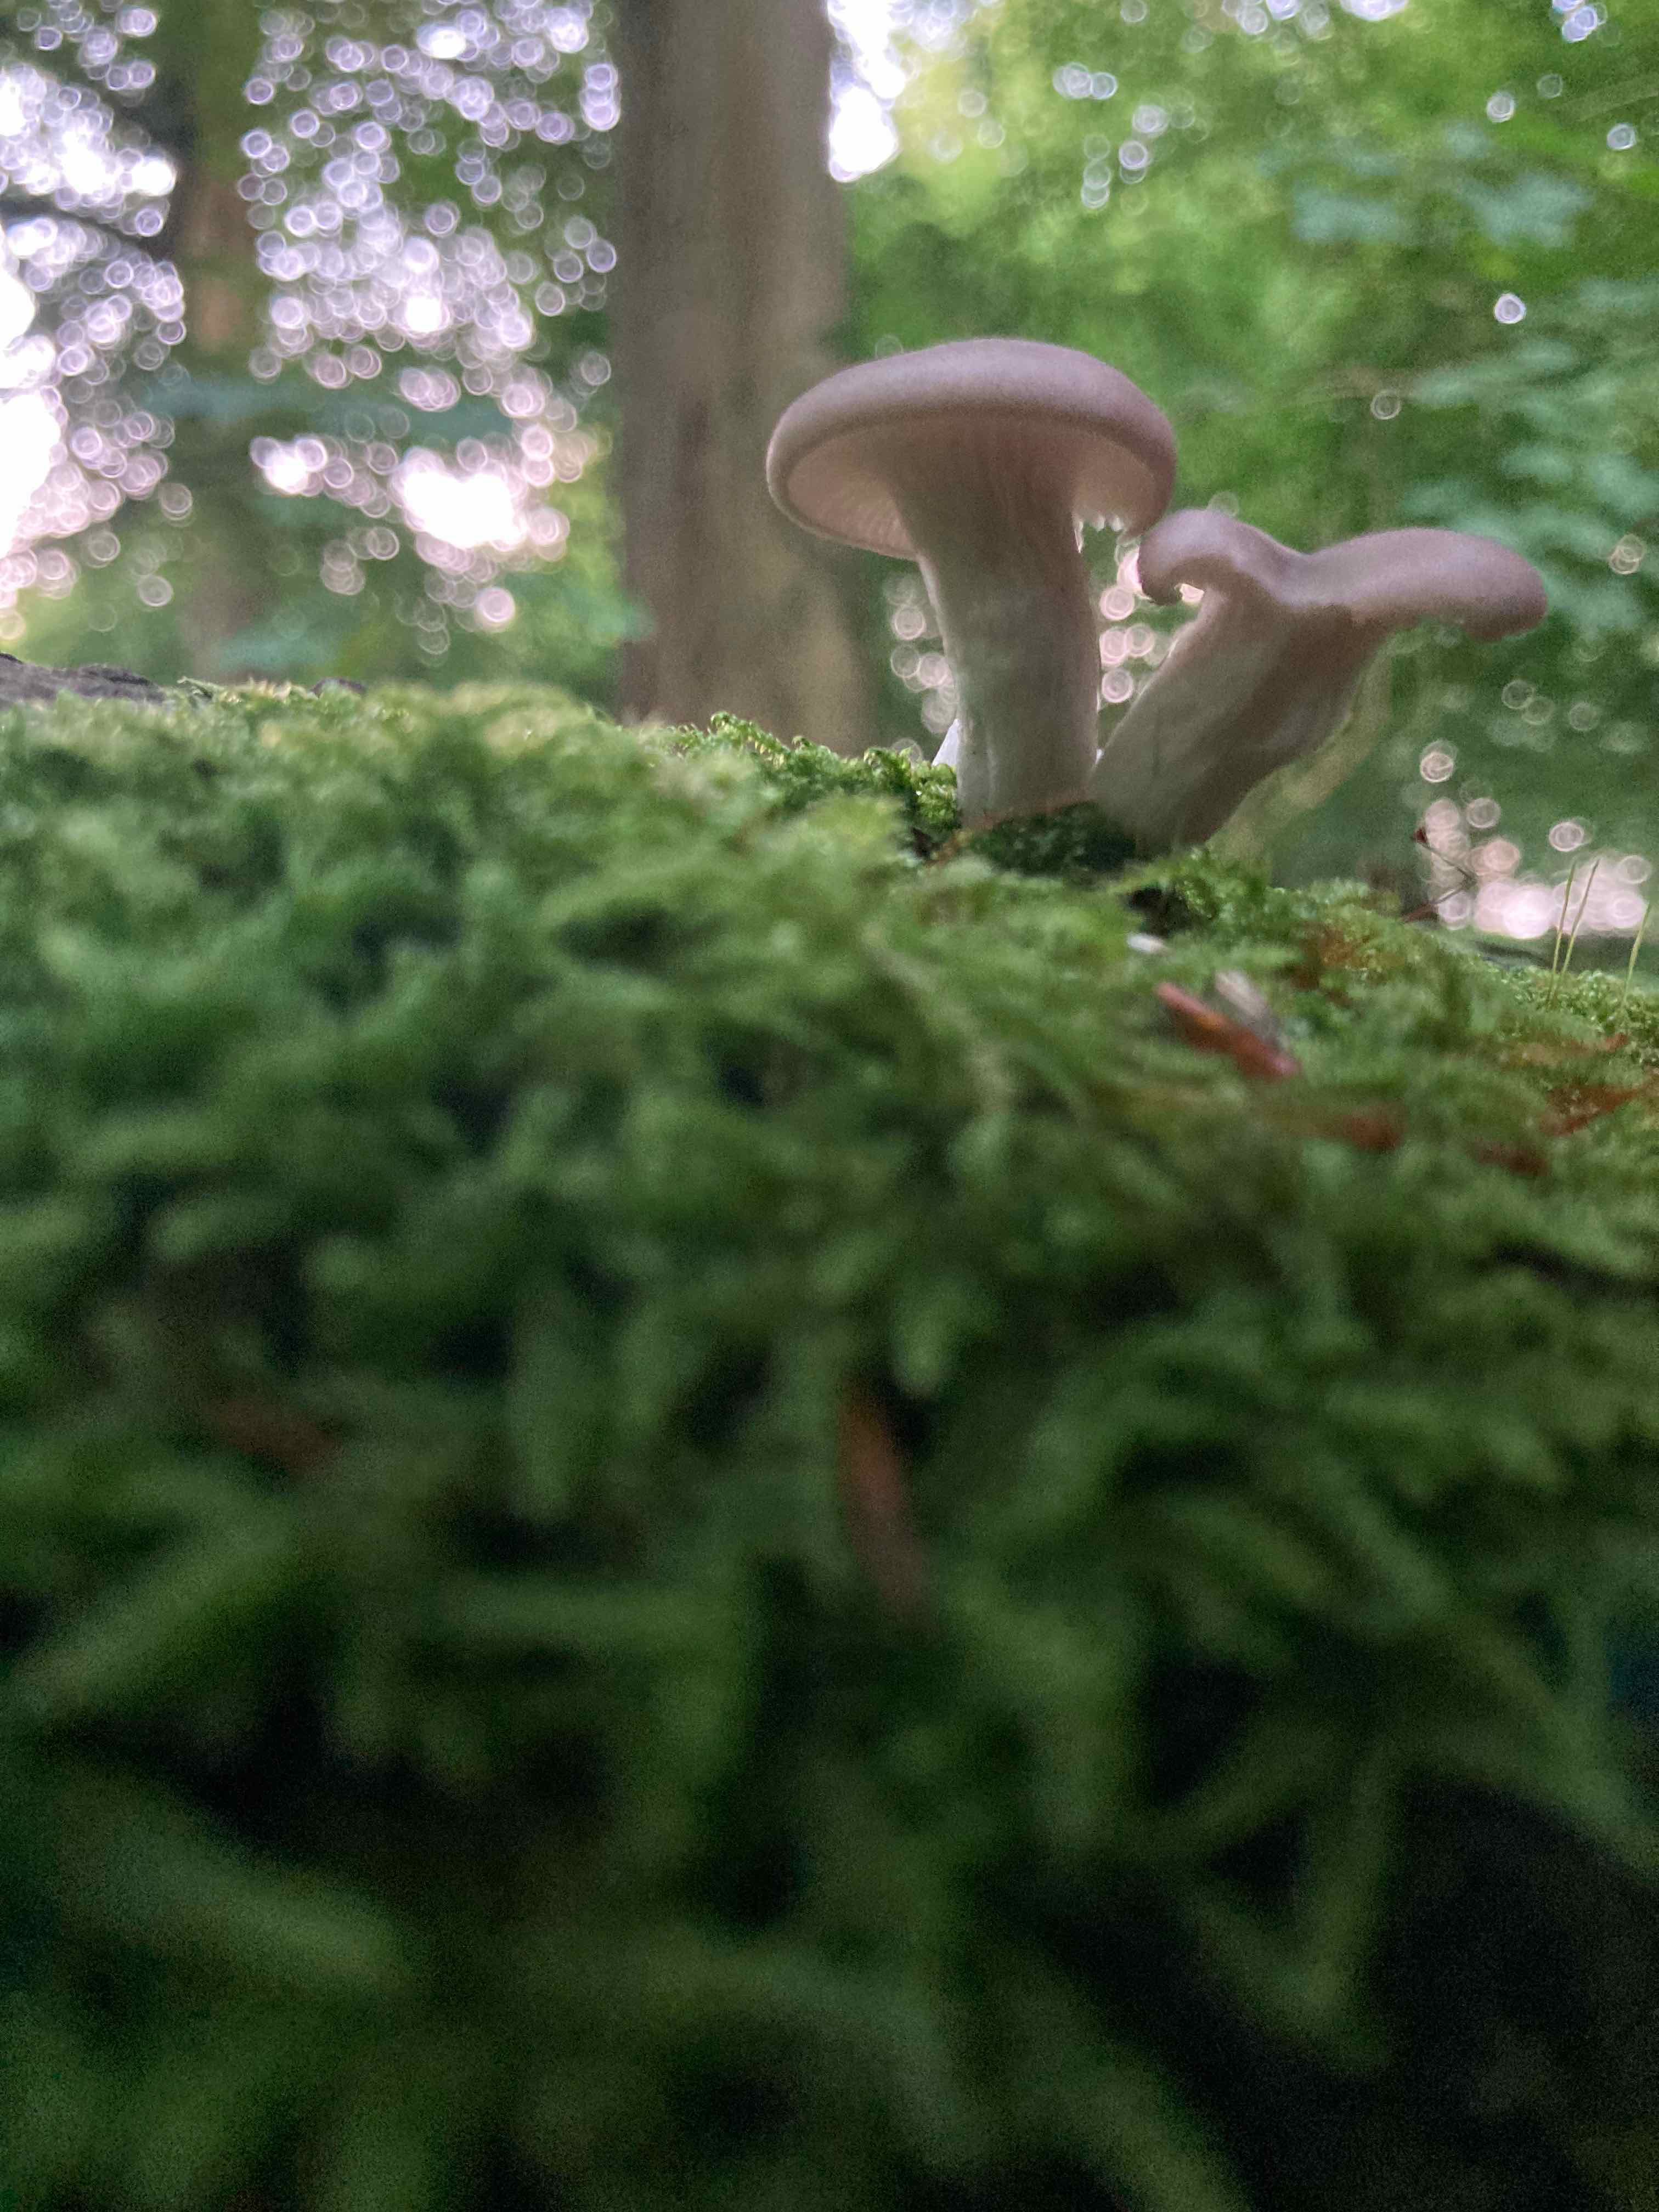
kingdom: Fungi
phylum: Basidiomycota
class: Agaricomycetes
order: Agaricales
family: Pleurotaceae
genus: Pleurotus
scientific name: Pleurotus
